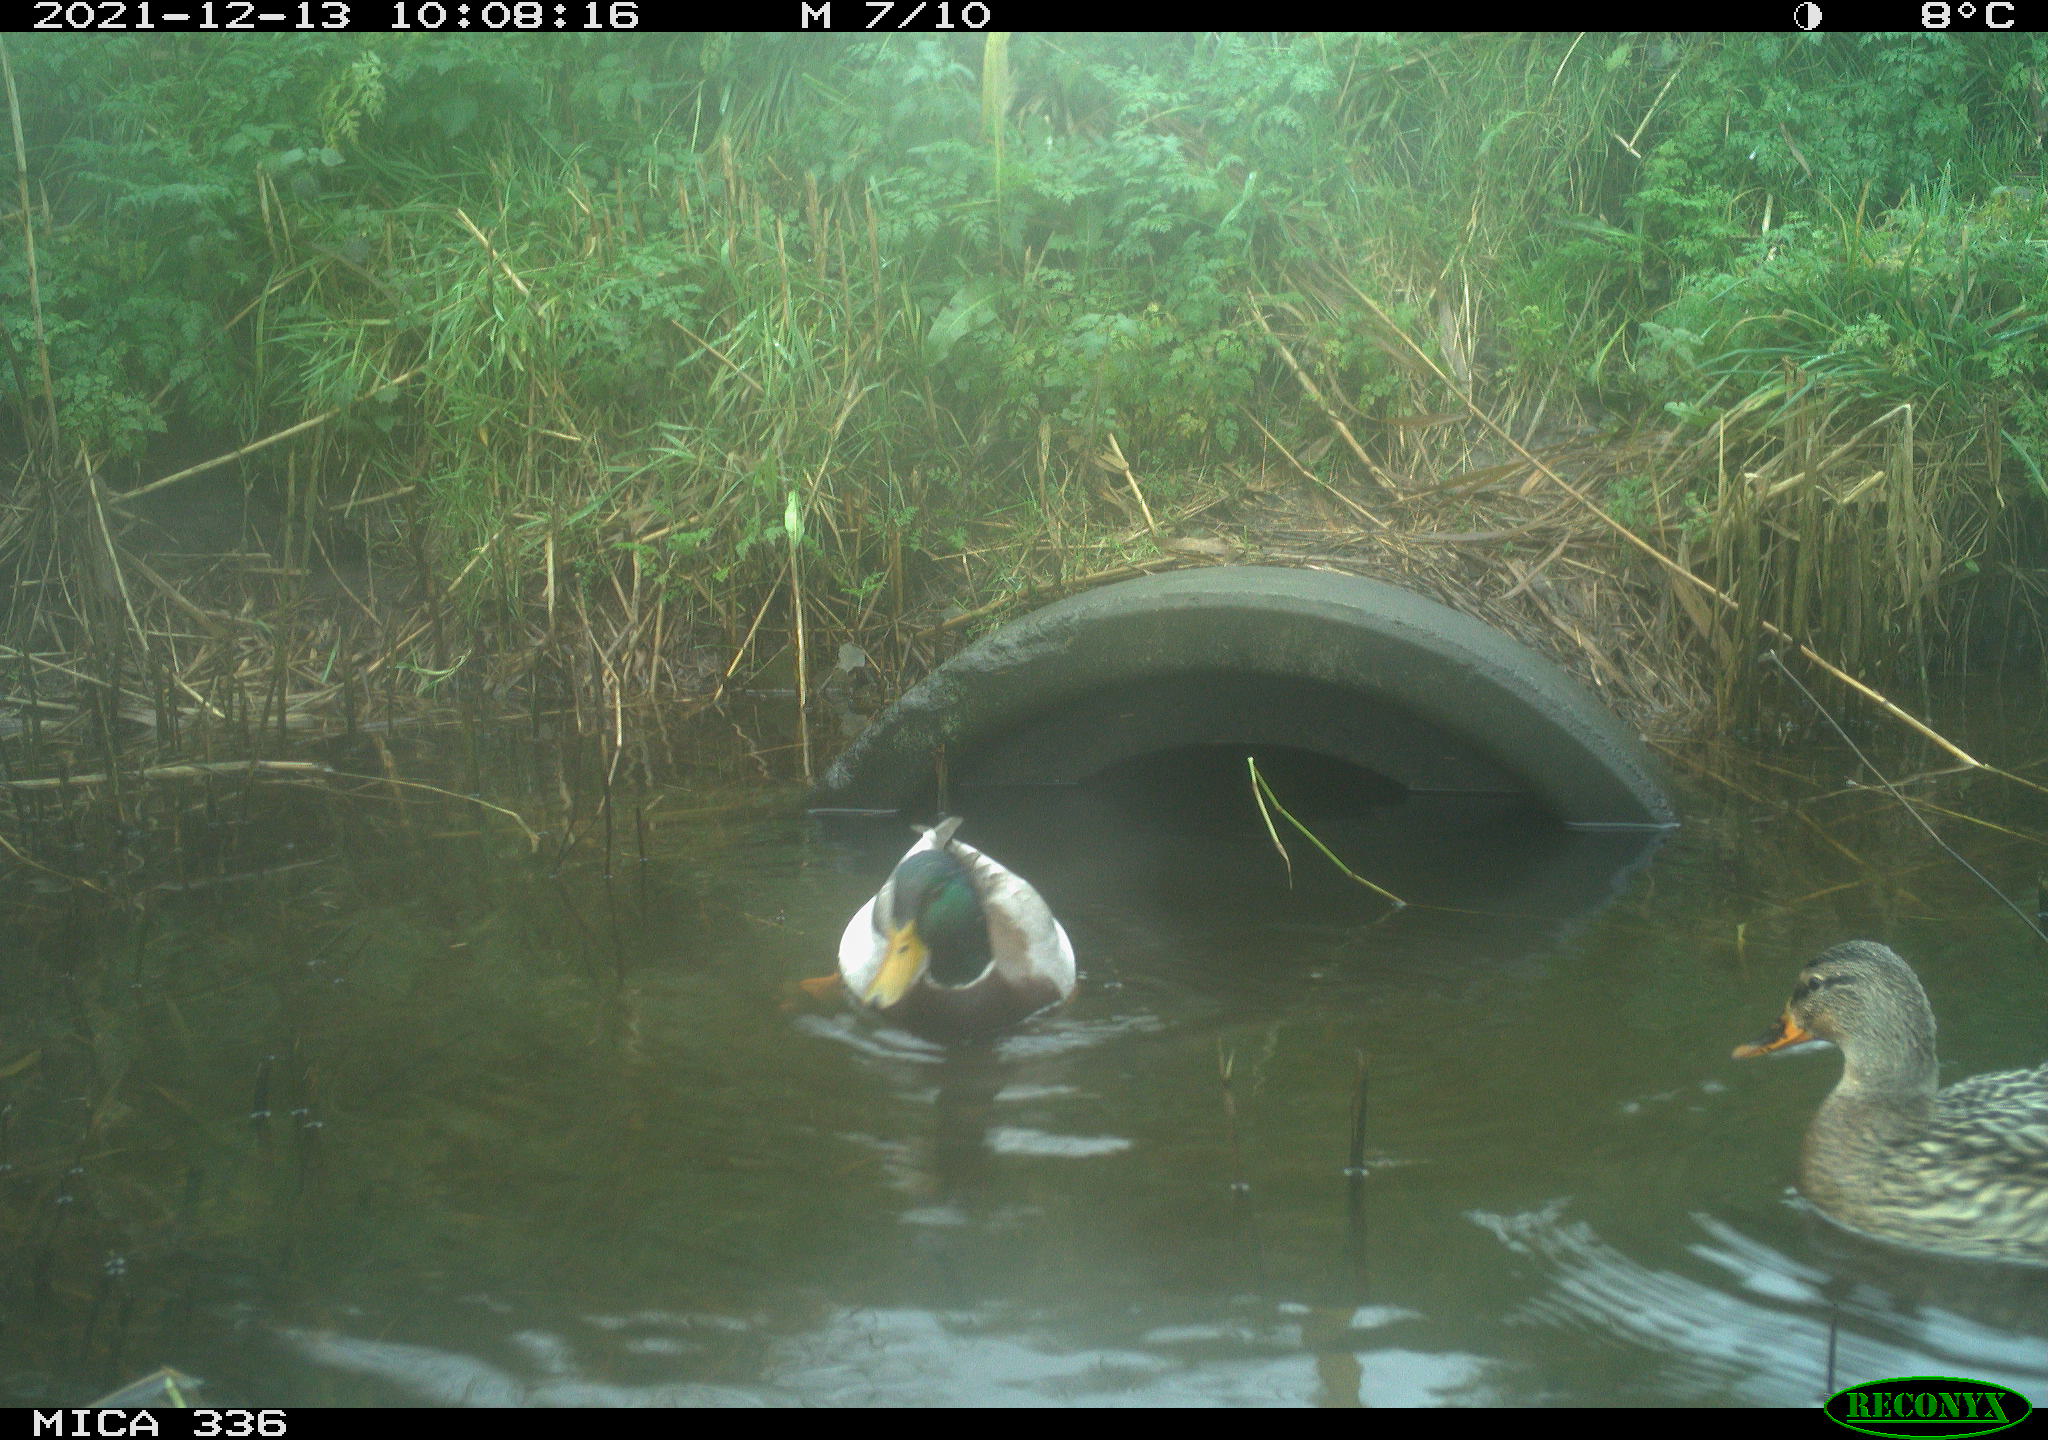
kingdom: Animalia
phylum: Chordata
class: Aves
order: Anseriformes
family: Anatidae
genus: Anas
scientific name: Anas platyrhynchos
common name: Mallard
